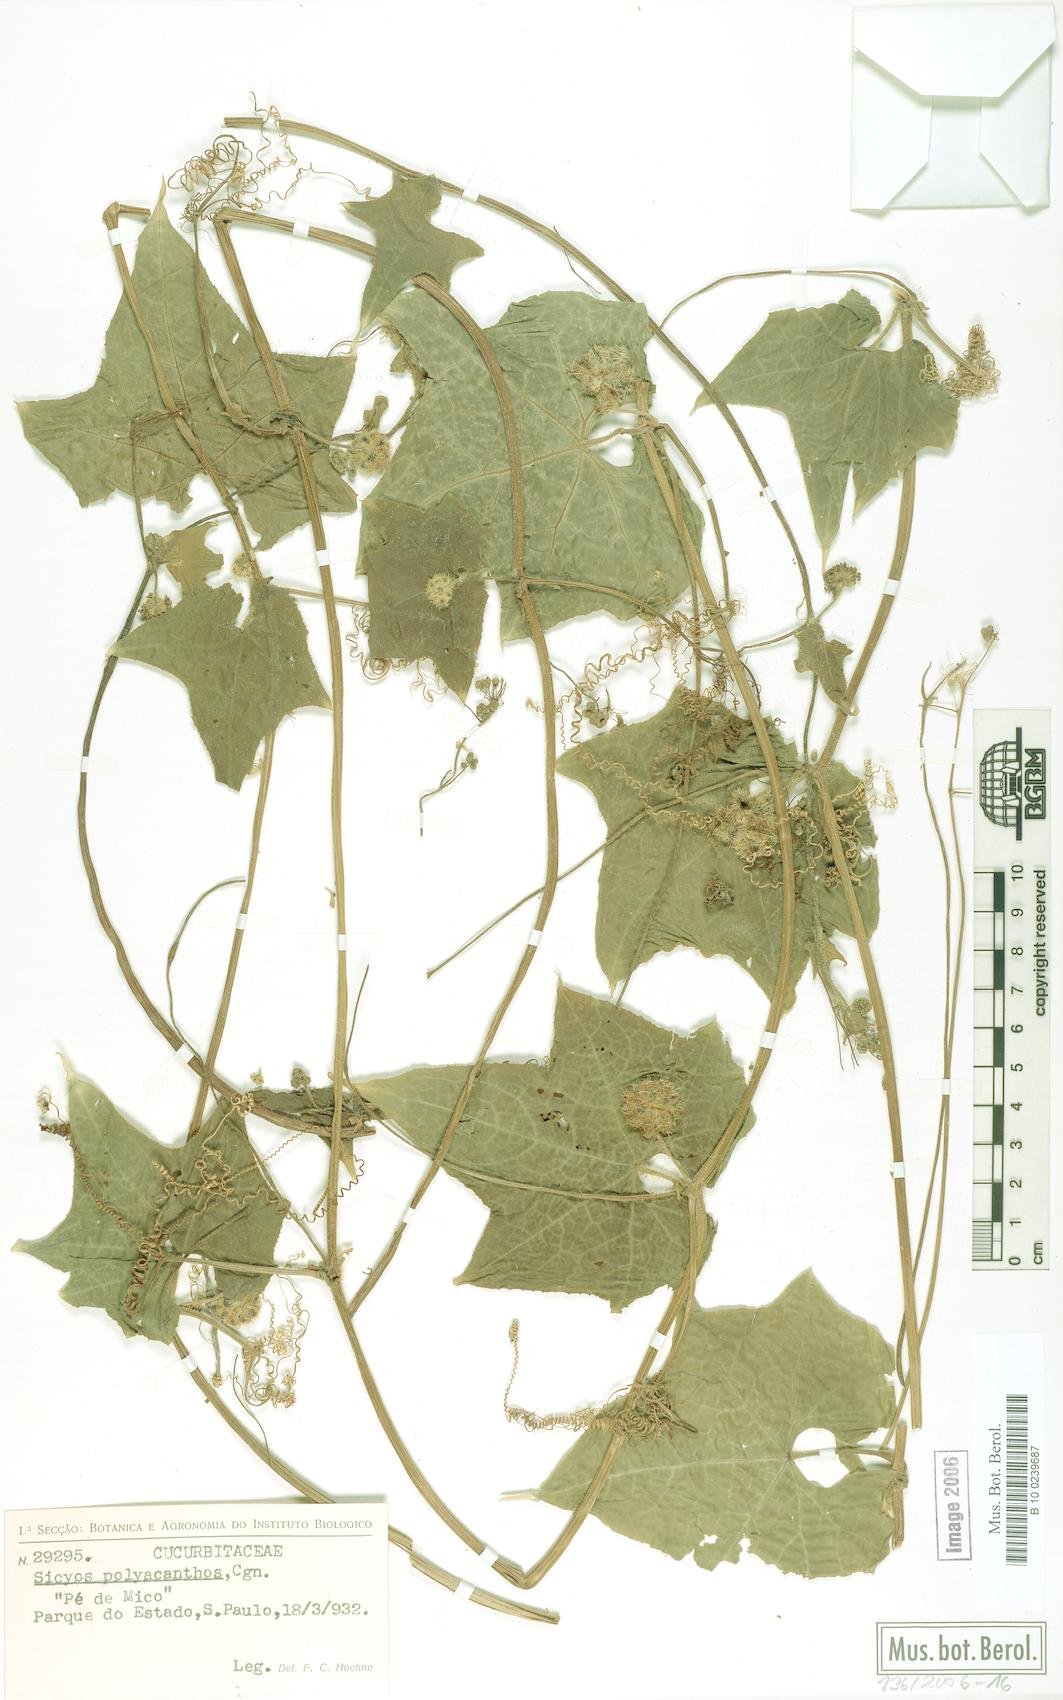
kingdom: Plantae
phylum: Tracheophyta
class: Magnoliopsida
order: Cucurbitales
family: Cucurbitaceae
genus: Sicyos
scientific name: Sicyos polyacanthos
